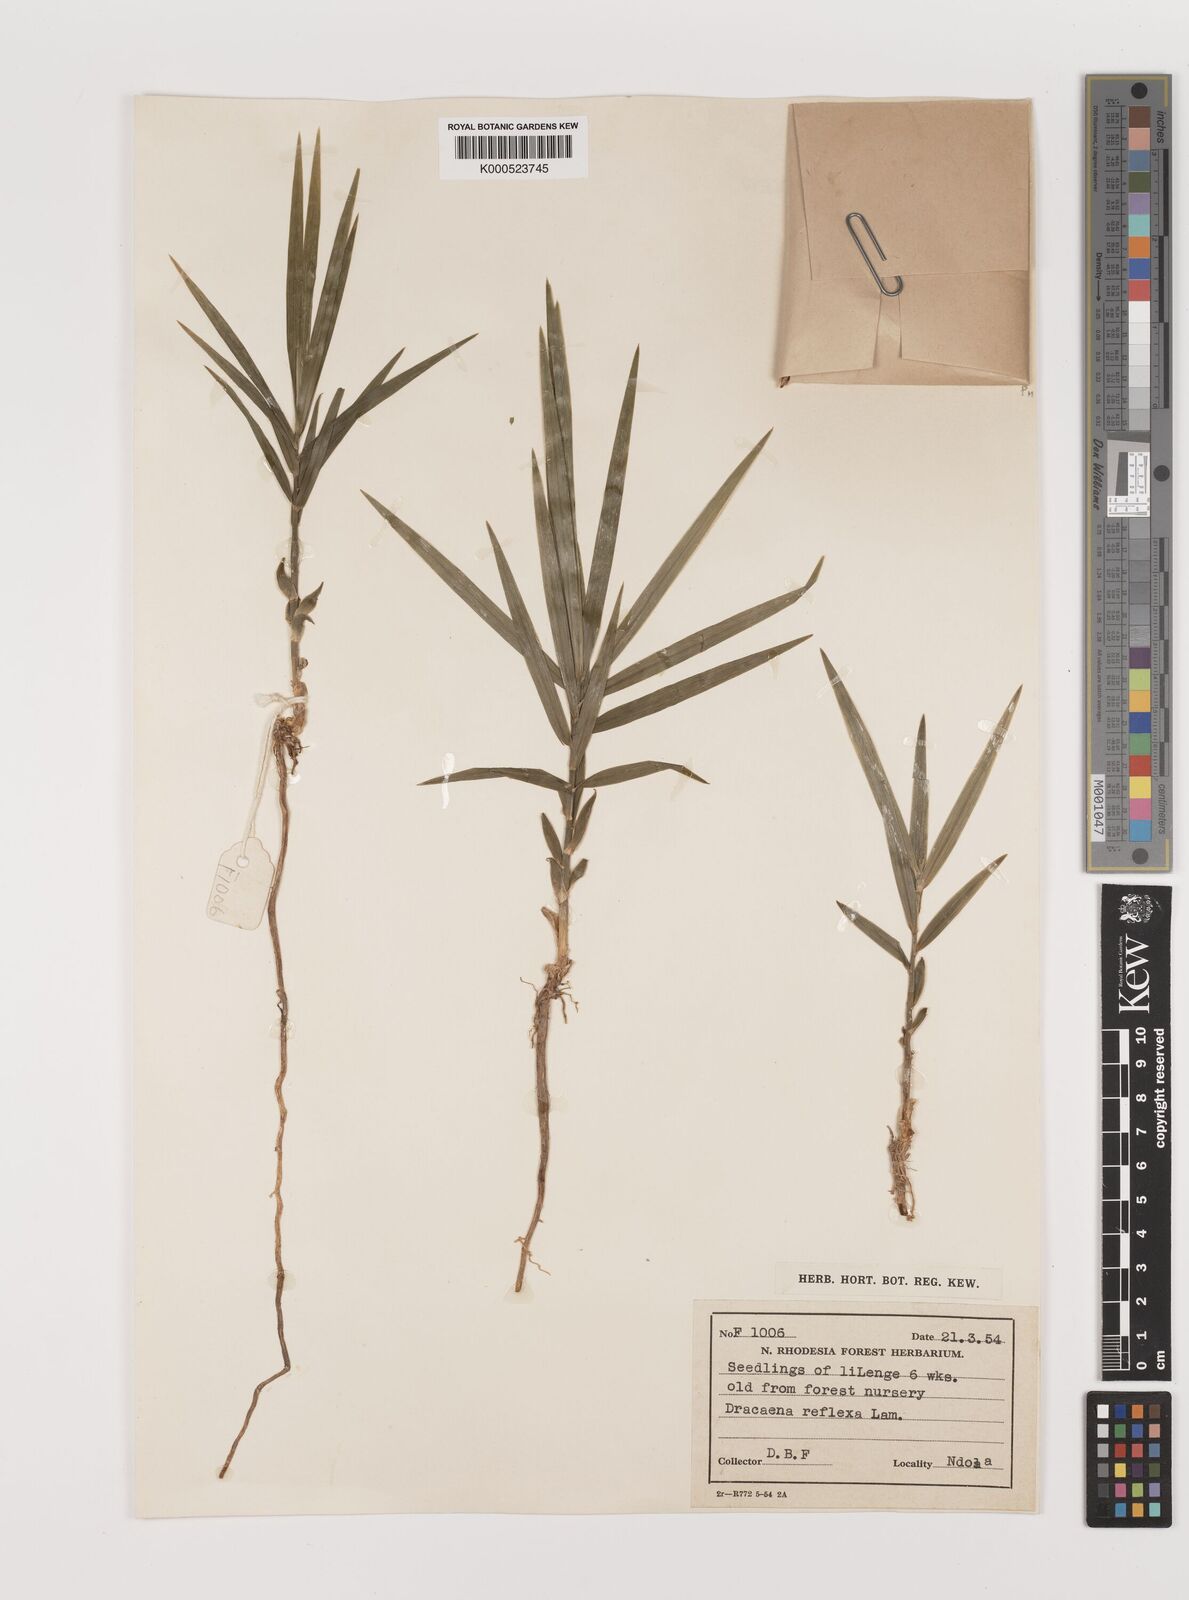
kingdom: Plantae
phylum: Tracheophyta
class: Liliopsida
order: Asparagales
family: Asparagaceae
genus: Dracaena
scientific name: Dracaena reflexa
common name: Song-of-india
